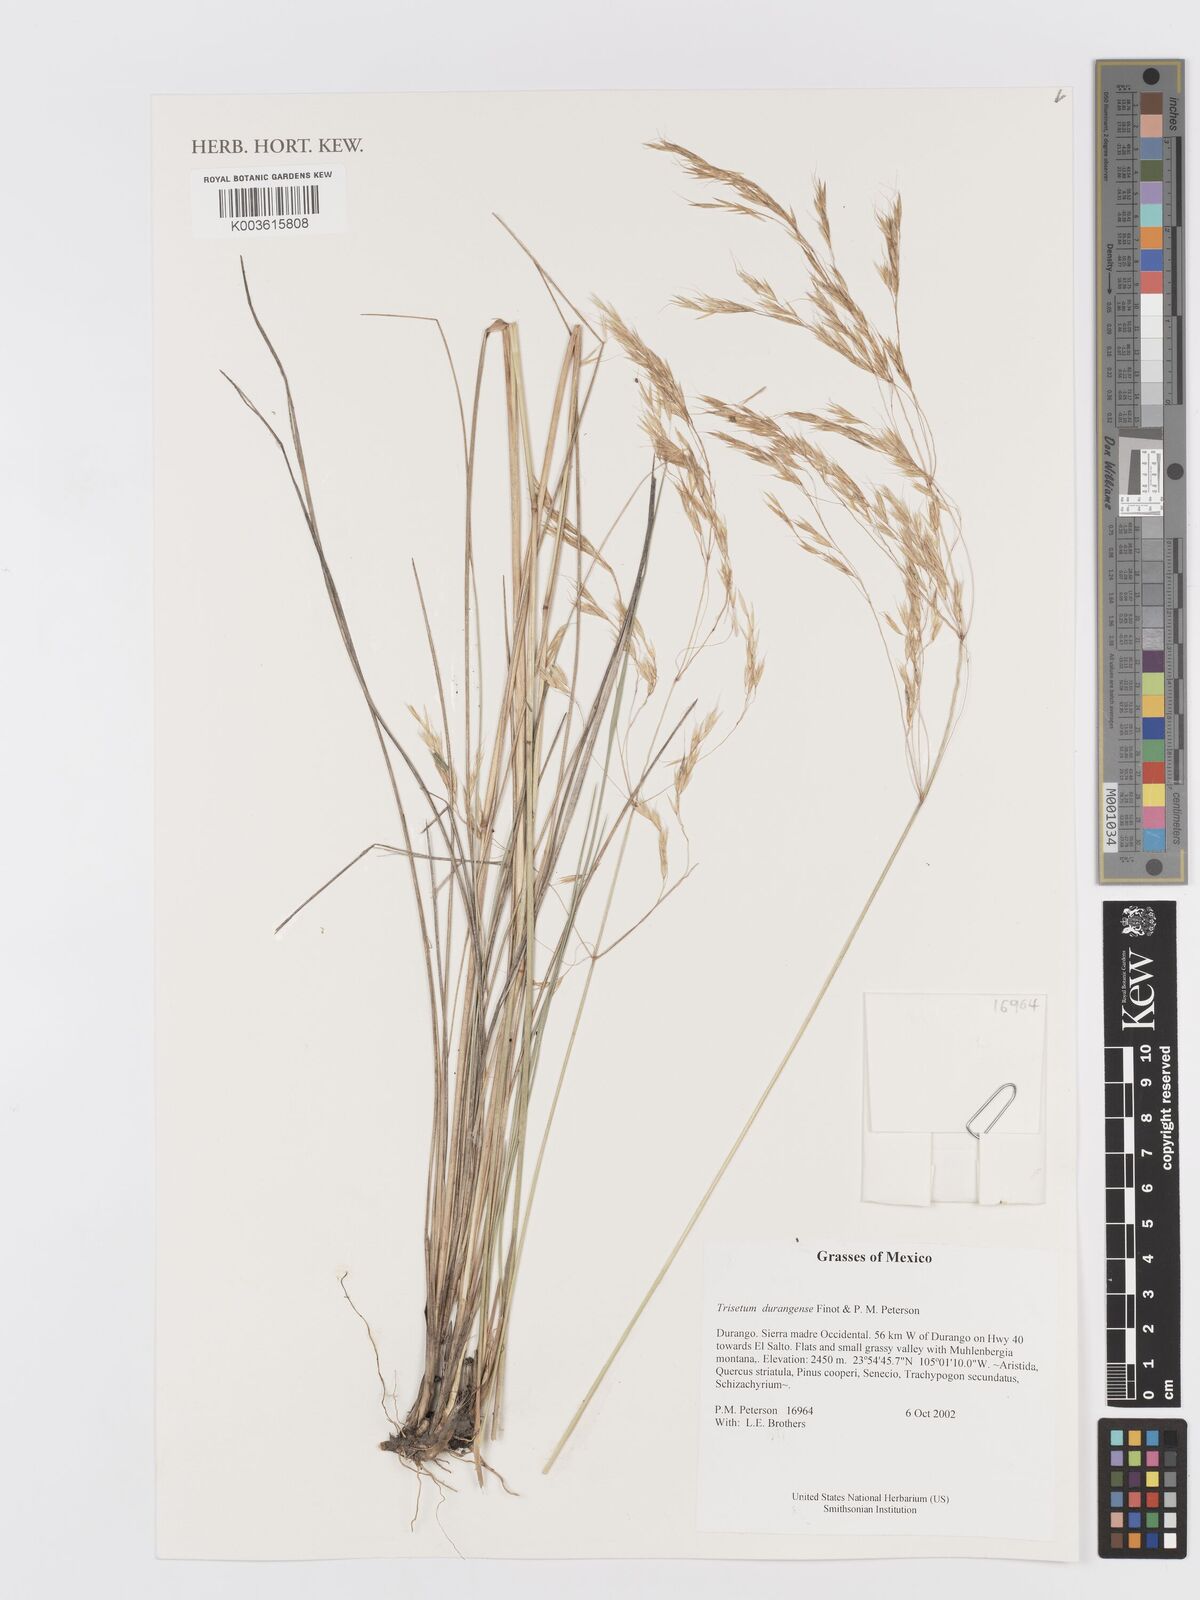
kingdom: Plantae
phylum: Tracheophyta
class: Liliopsida
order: Poales
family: Poaceae
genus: Peyritschia
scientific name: Peyritschia durangensis
